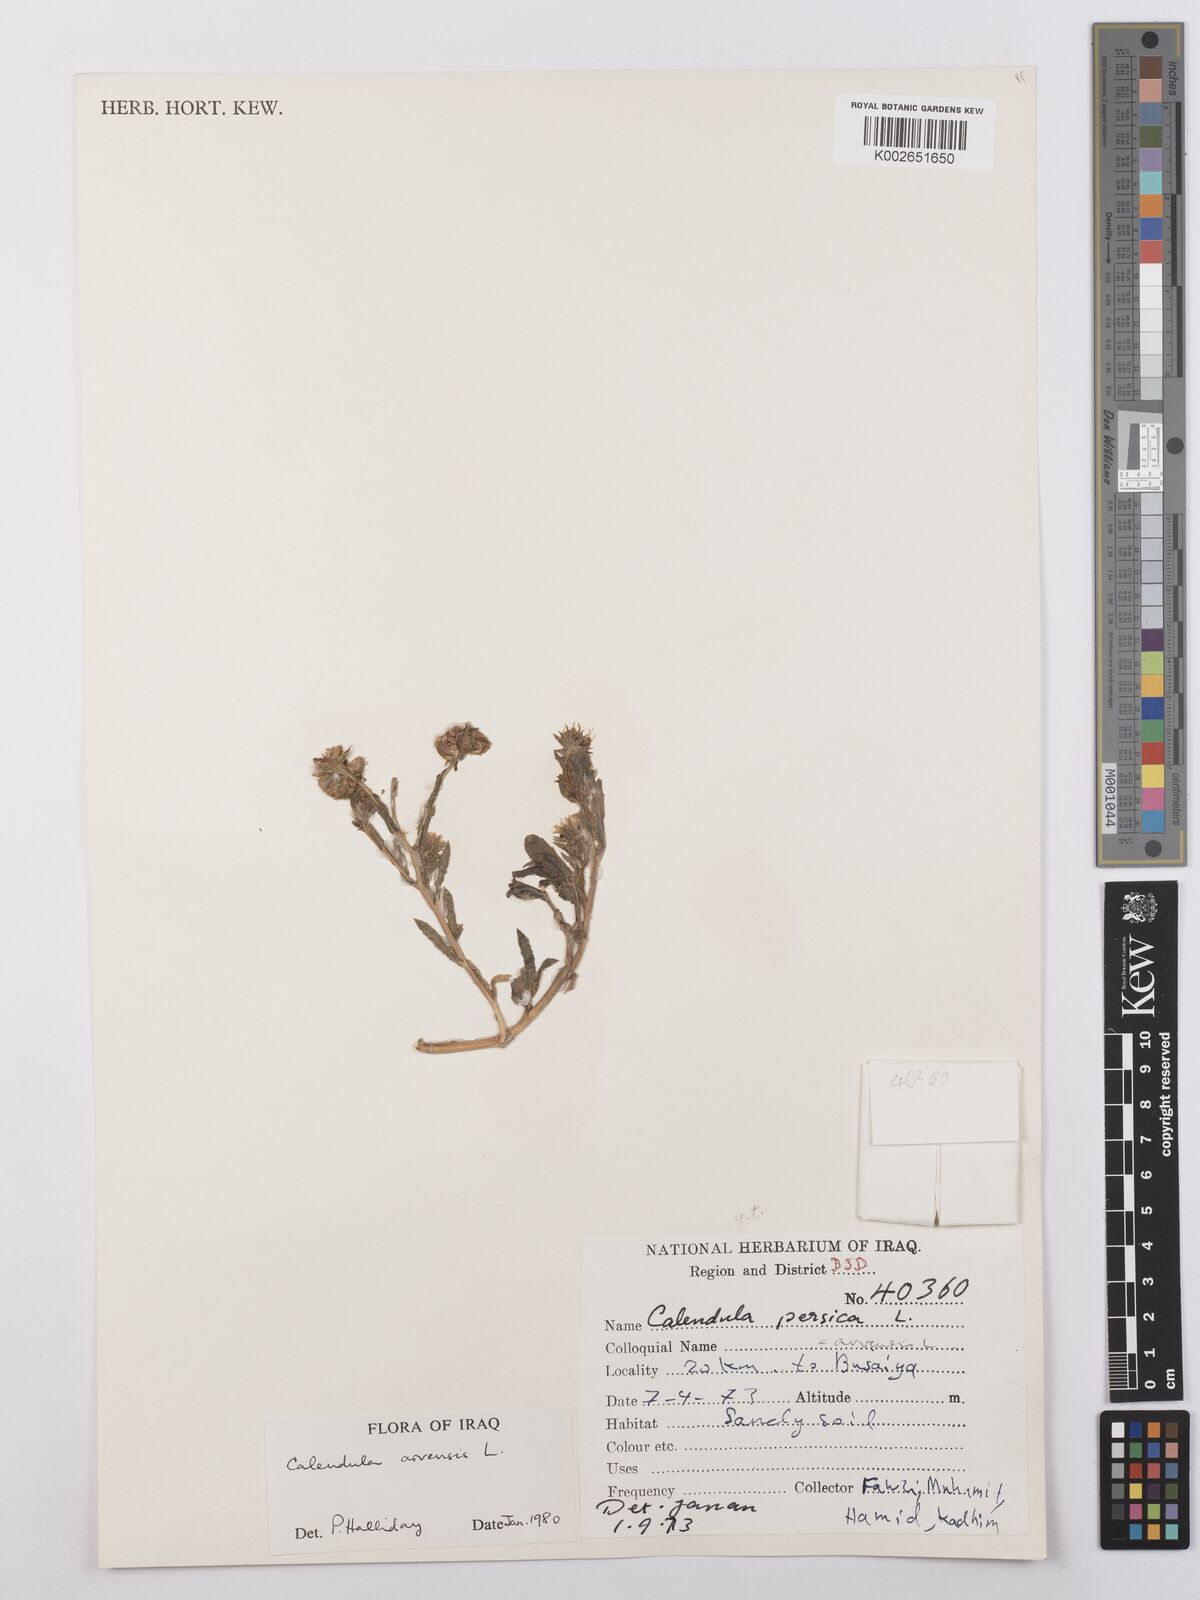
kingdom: Plantae
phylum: Tracheophyta
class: Magnoliopsida
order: Asterales
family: Asteraceae
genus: Calendula
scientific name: Calendula arvensis
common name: Field marigold
